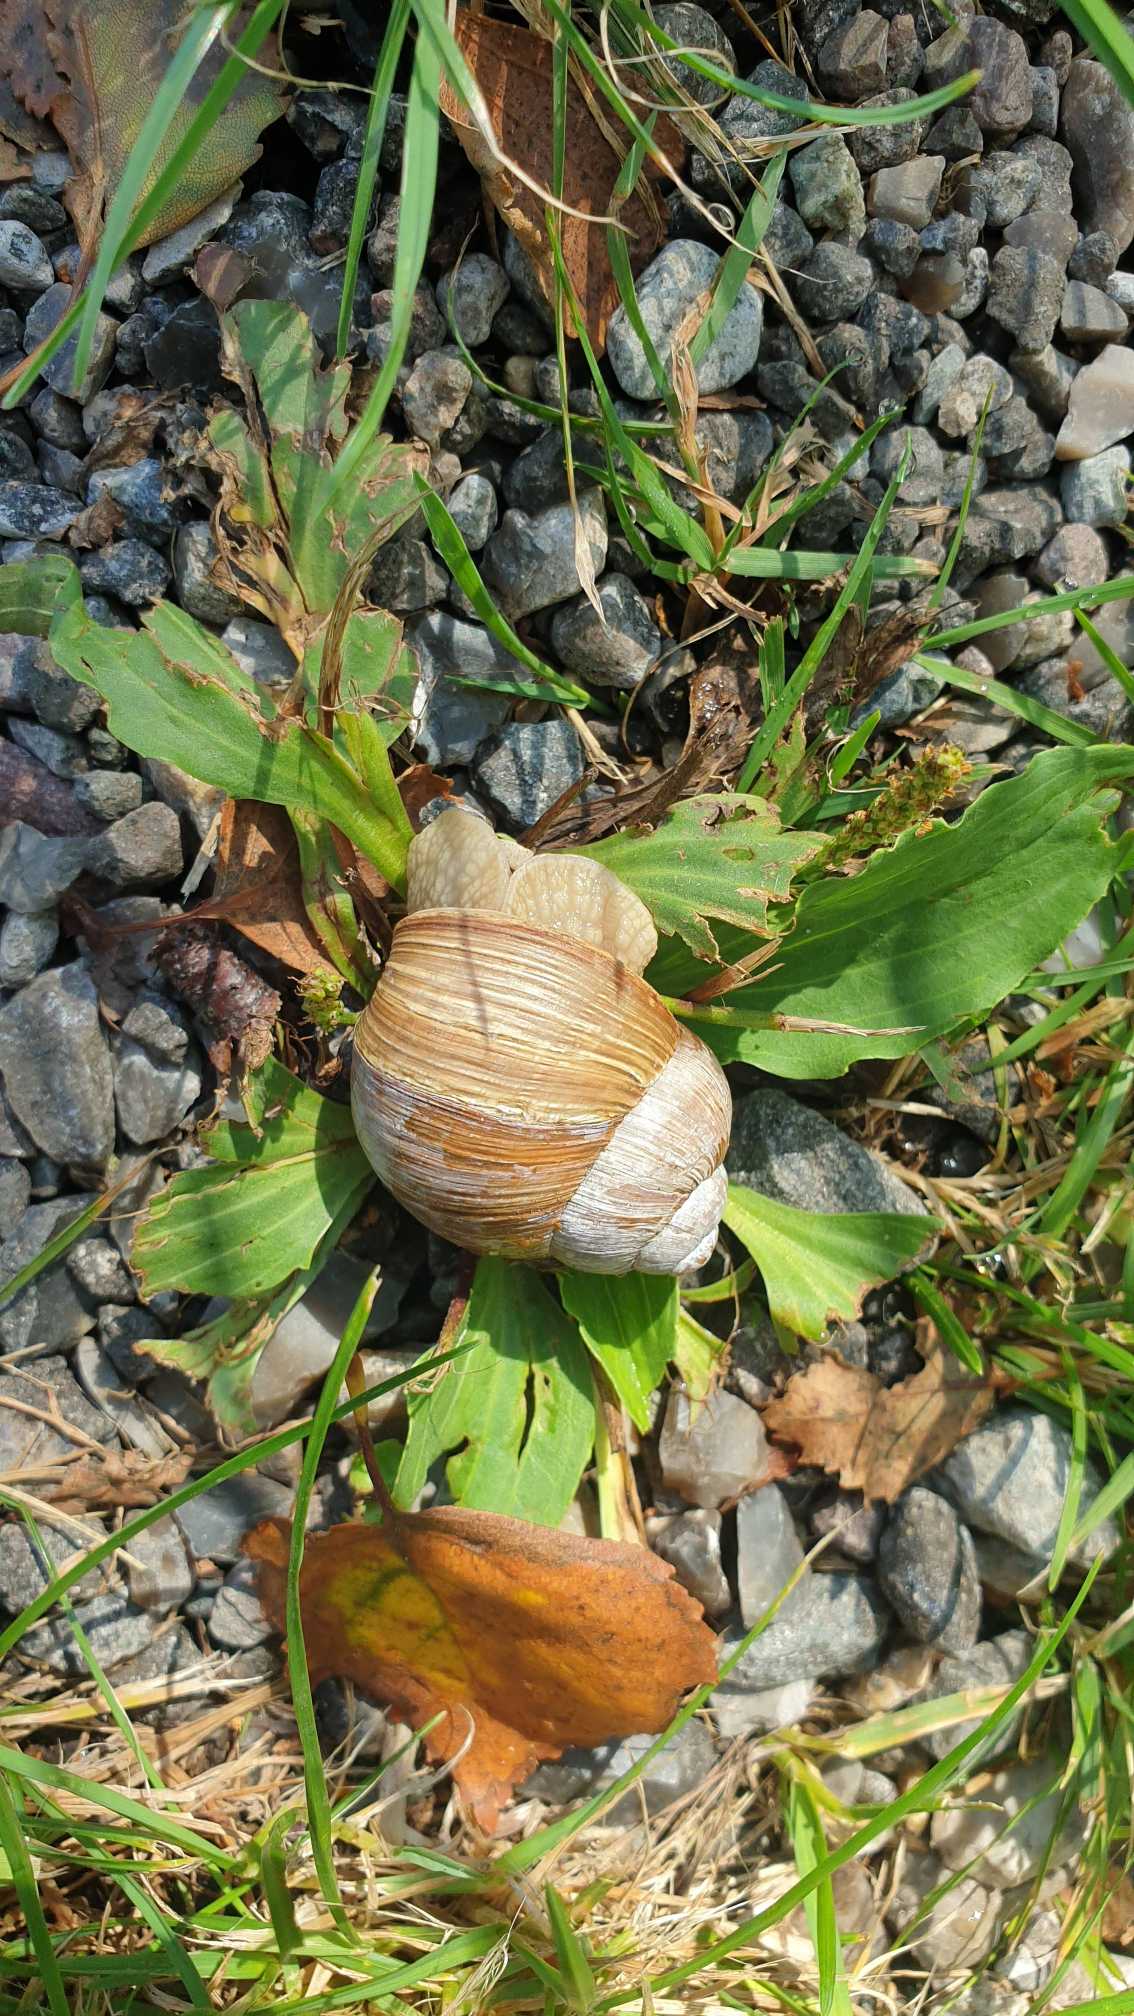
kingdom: Animalia
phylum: Mollusca
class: Gastropoda
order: Stylommatophora
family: Helicidae
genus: Helix
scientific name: Helix pomatia
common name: Vinbjergsnegl
